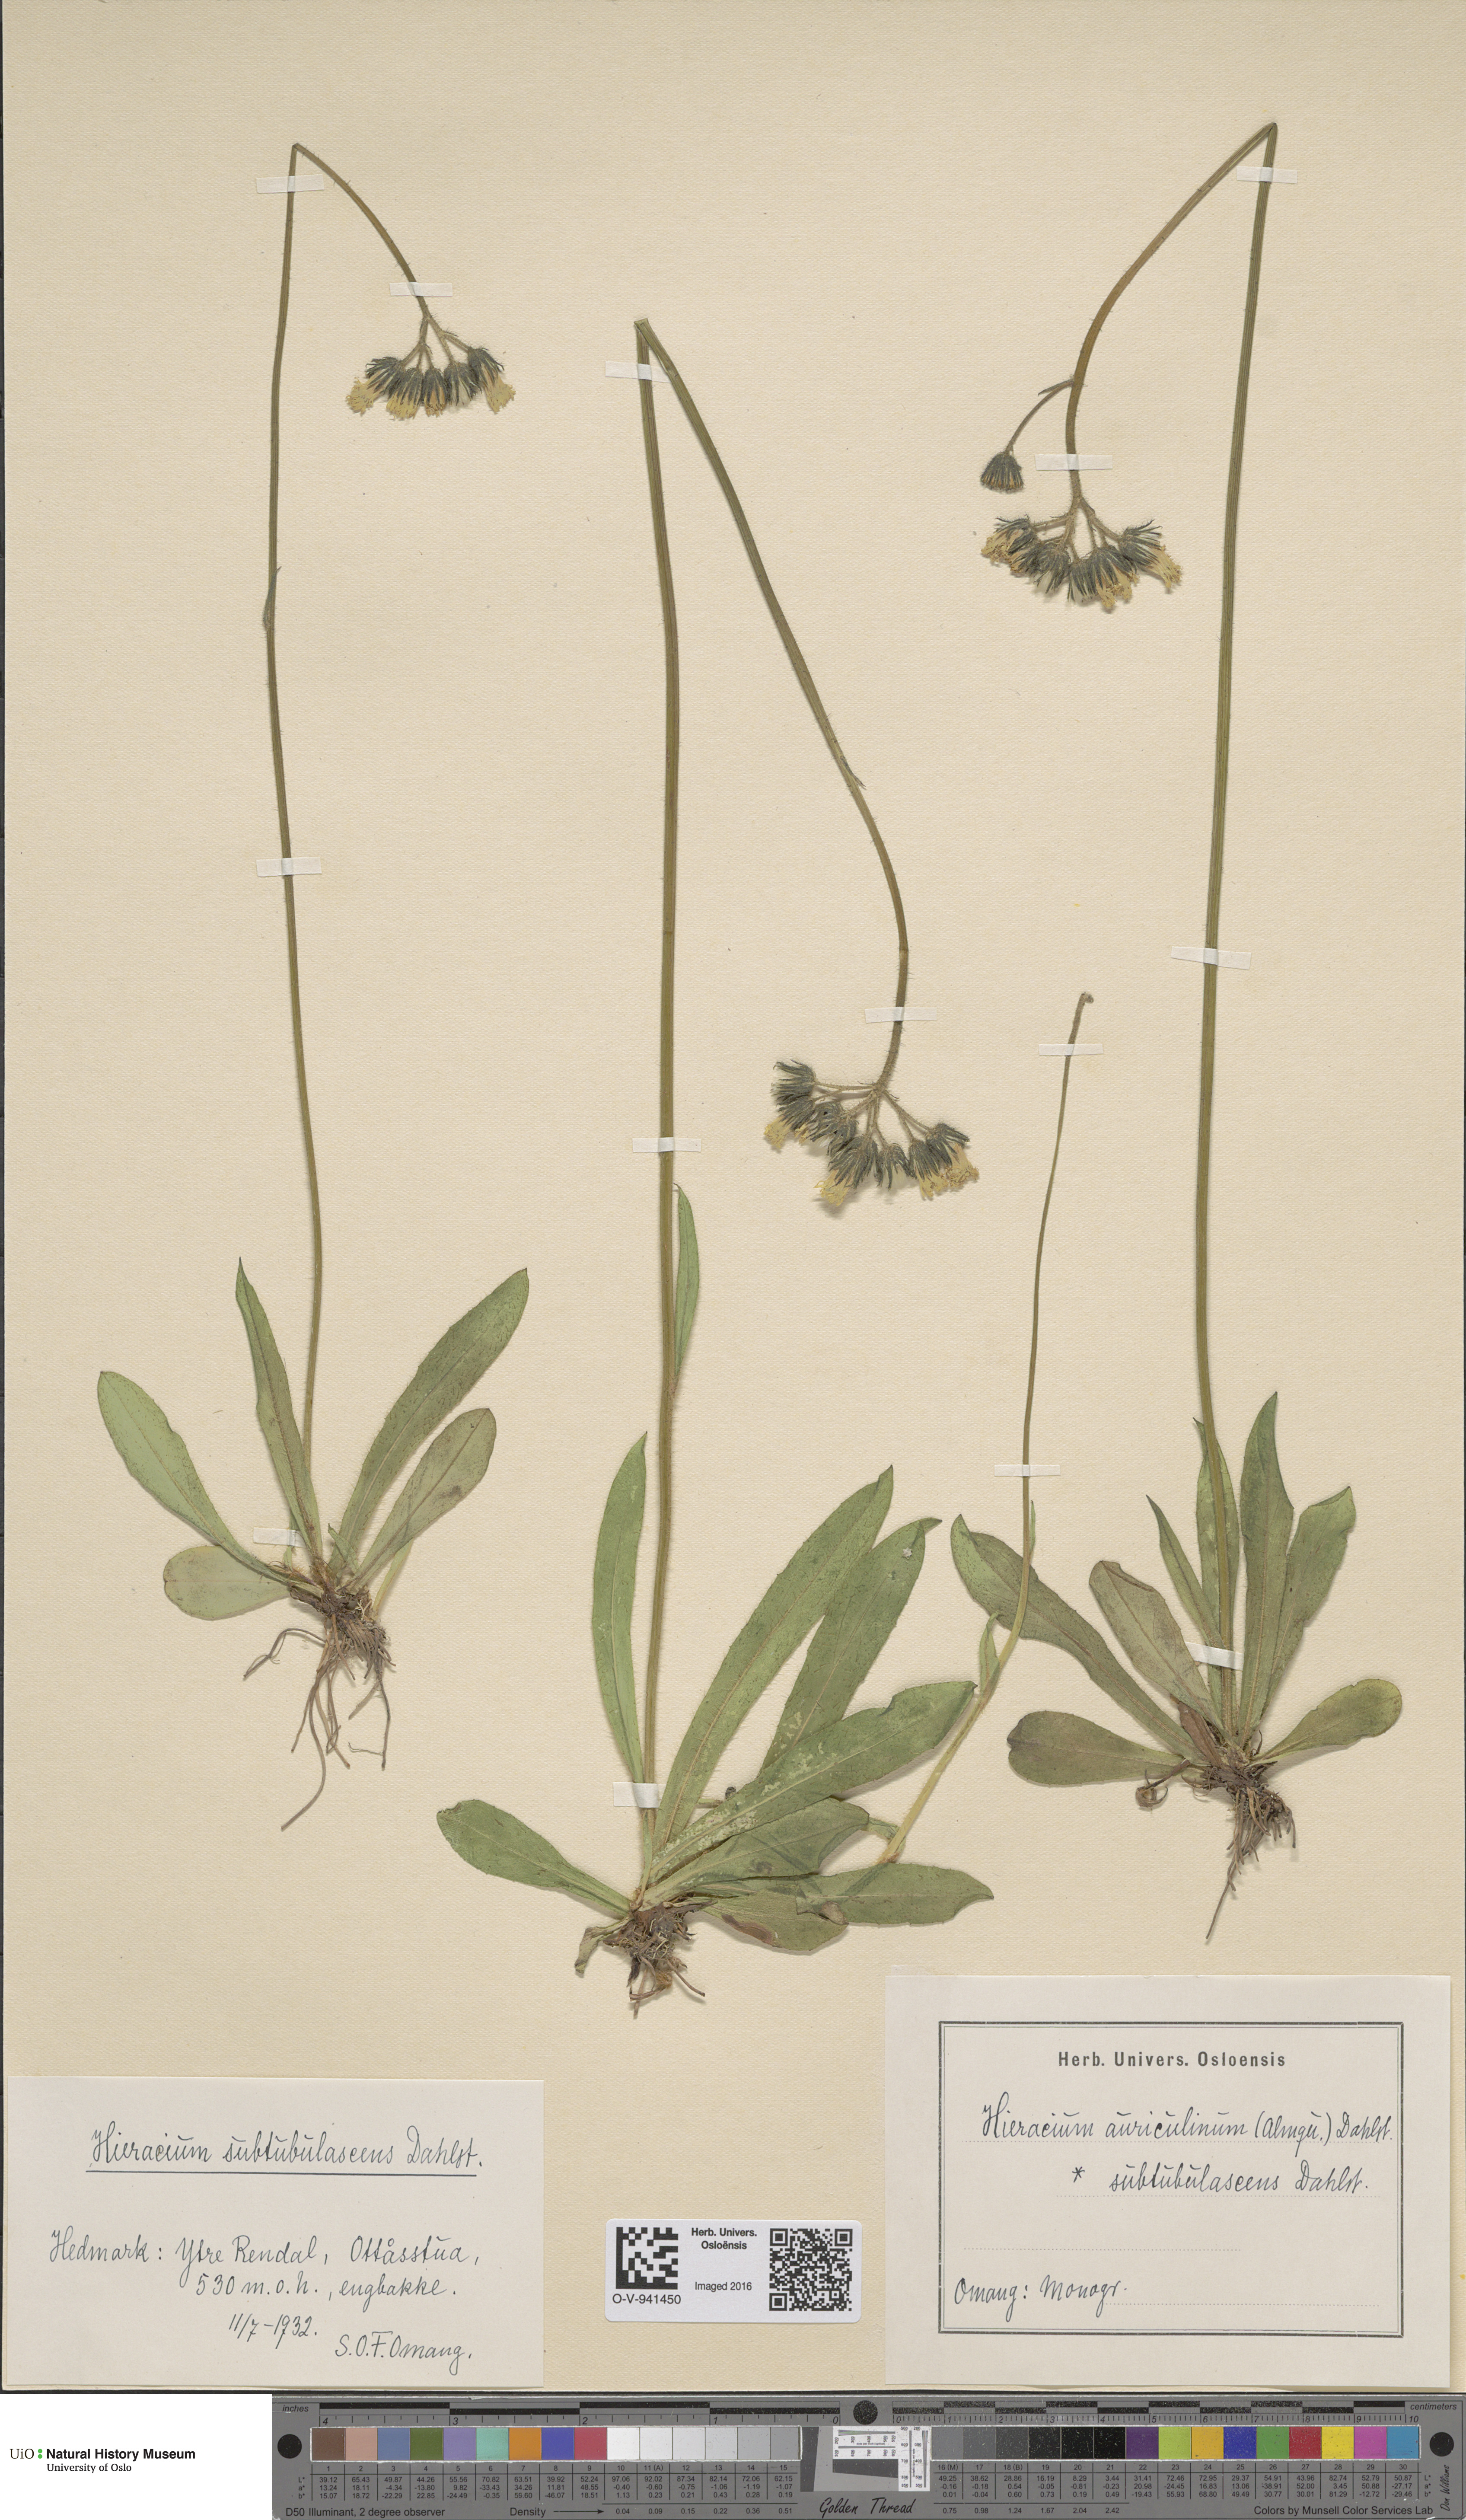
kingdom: Plantae
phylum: Tracheophyta
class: Magnoliopsida
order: Asterales
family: Asteraceae
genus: Pilosella
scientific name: Pilosella dubia
